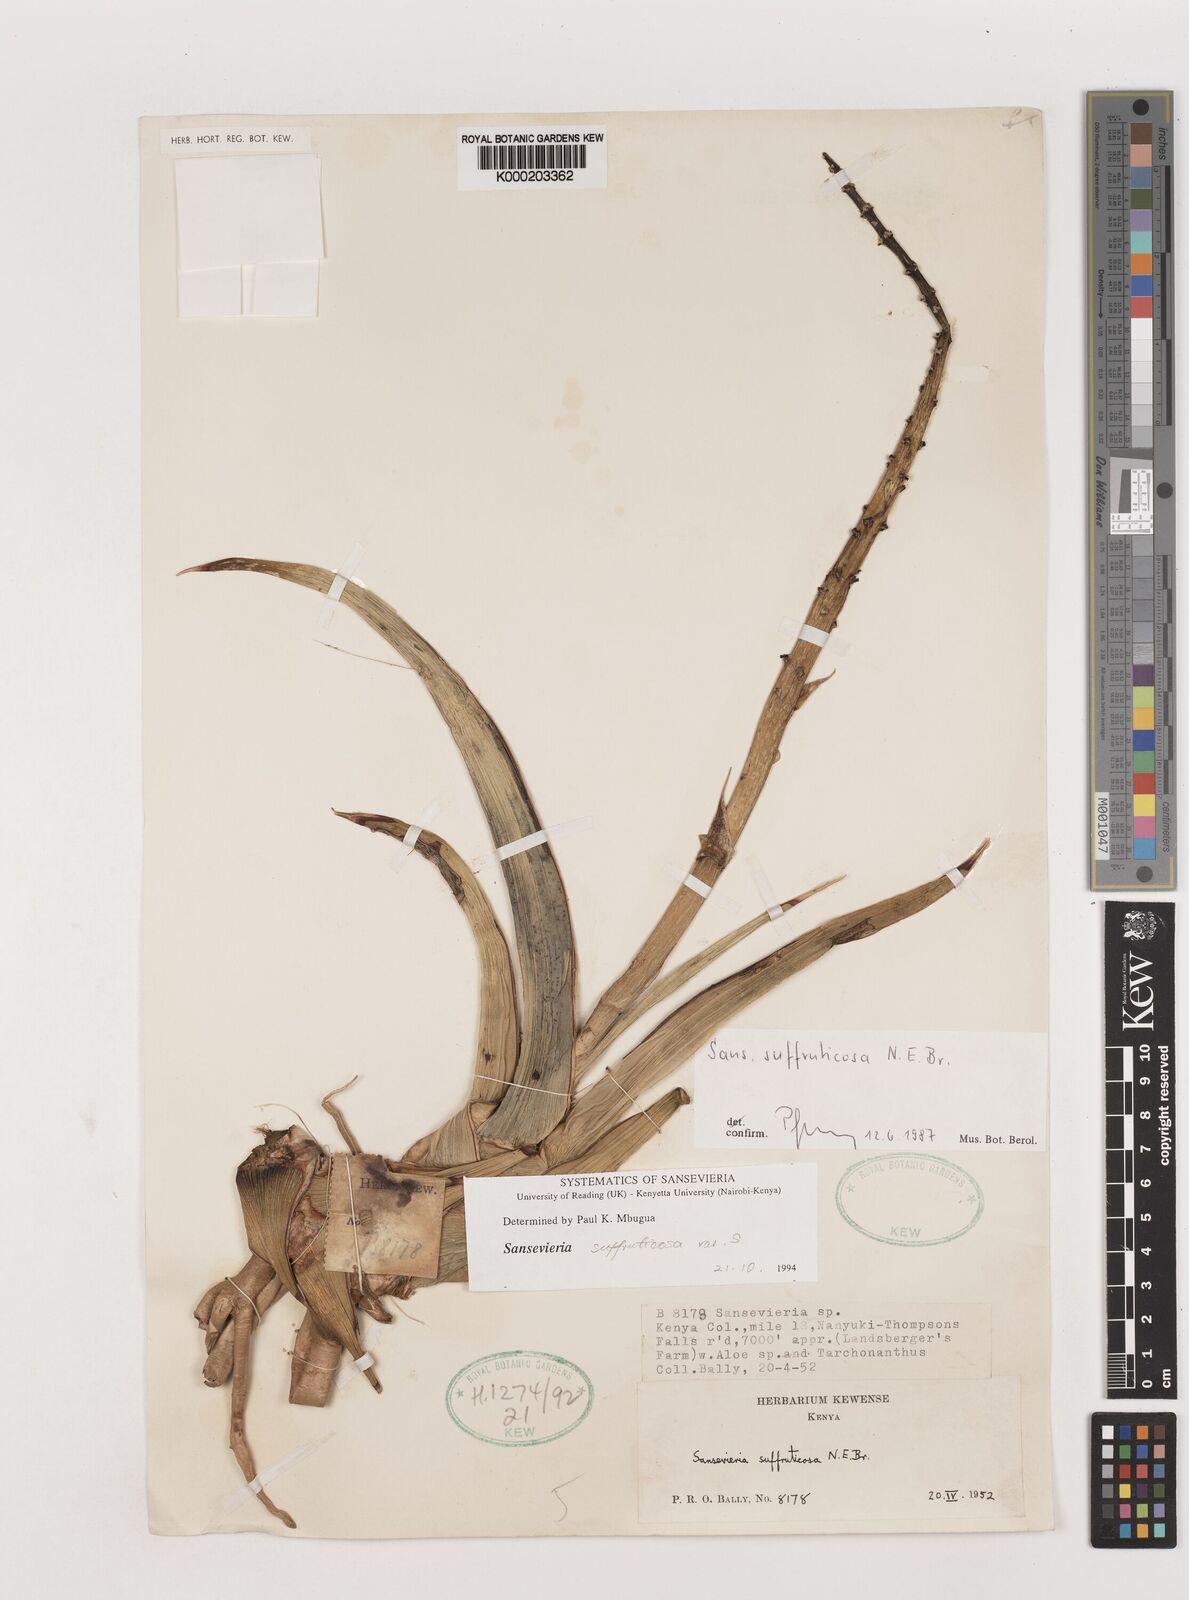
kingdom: Plantae
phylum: Tracheophyta
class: Liliopsida
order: Asparagales
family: Asparagaceae
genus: Dracaena
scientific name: Dracaena suffruticosa
